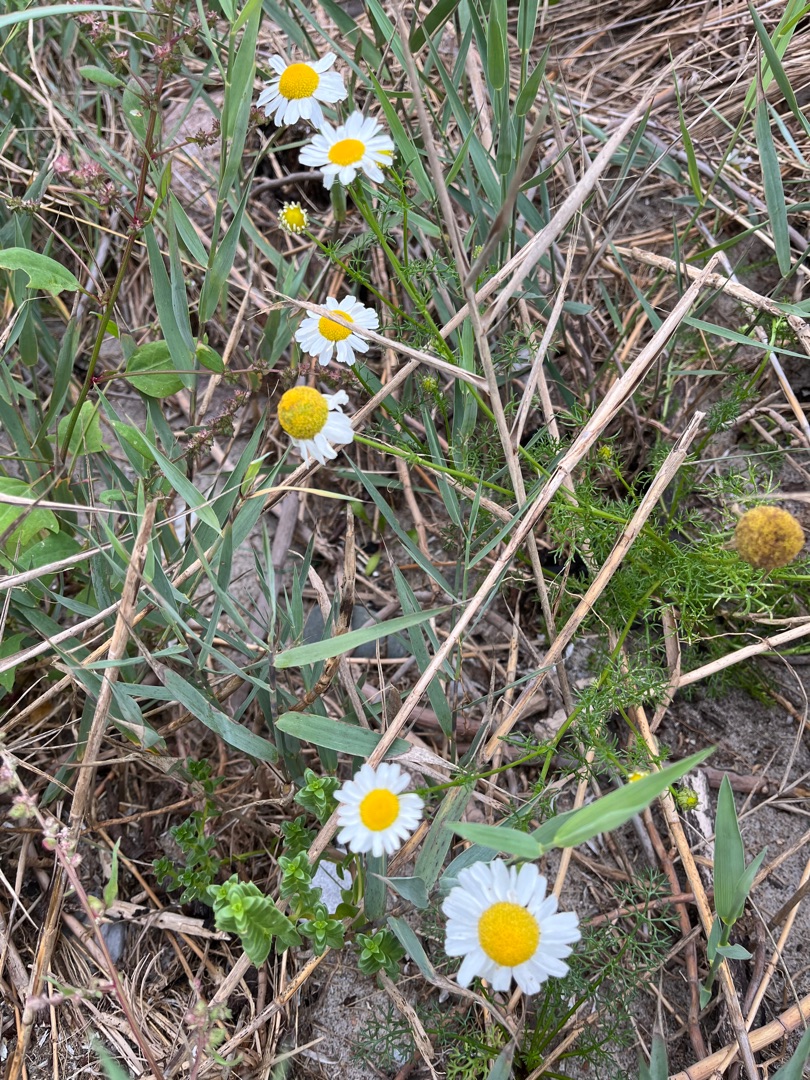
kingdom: Plantae
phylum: Tracheophyta
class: Magnoliopsida
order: Asterales
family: Asteraceae
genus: Tripleurospermum
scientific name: Tripleurospermum maritimum
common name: Strand-kamille
